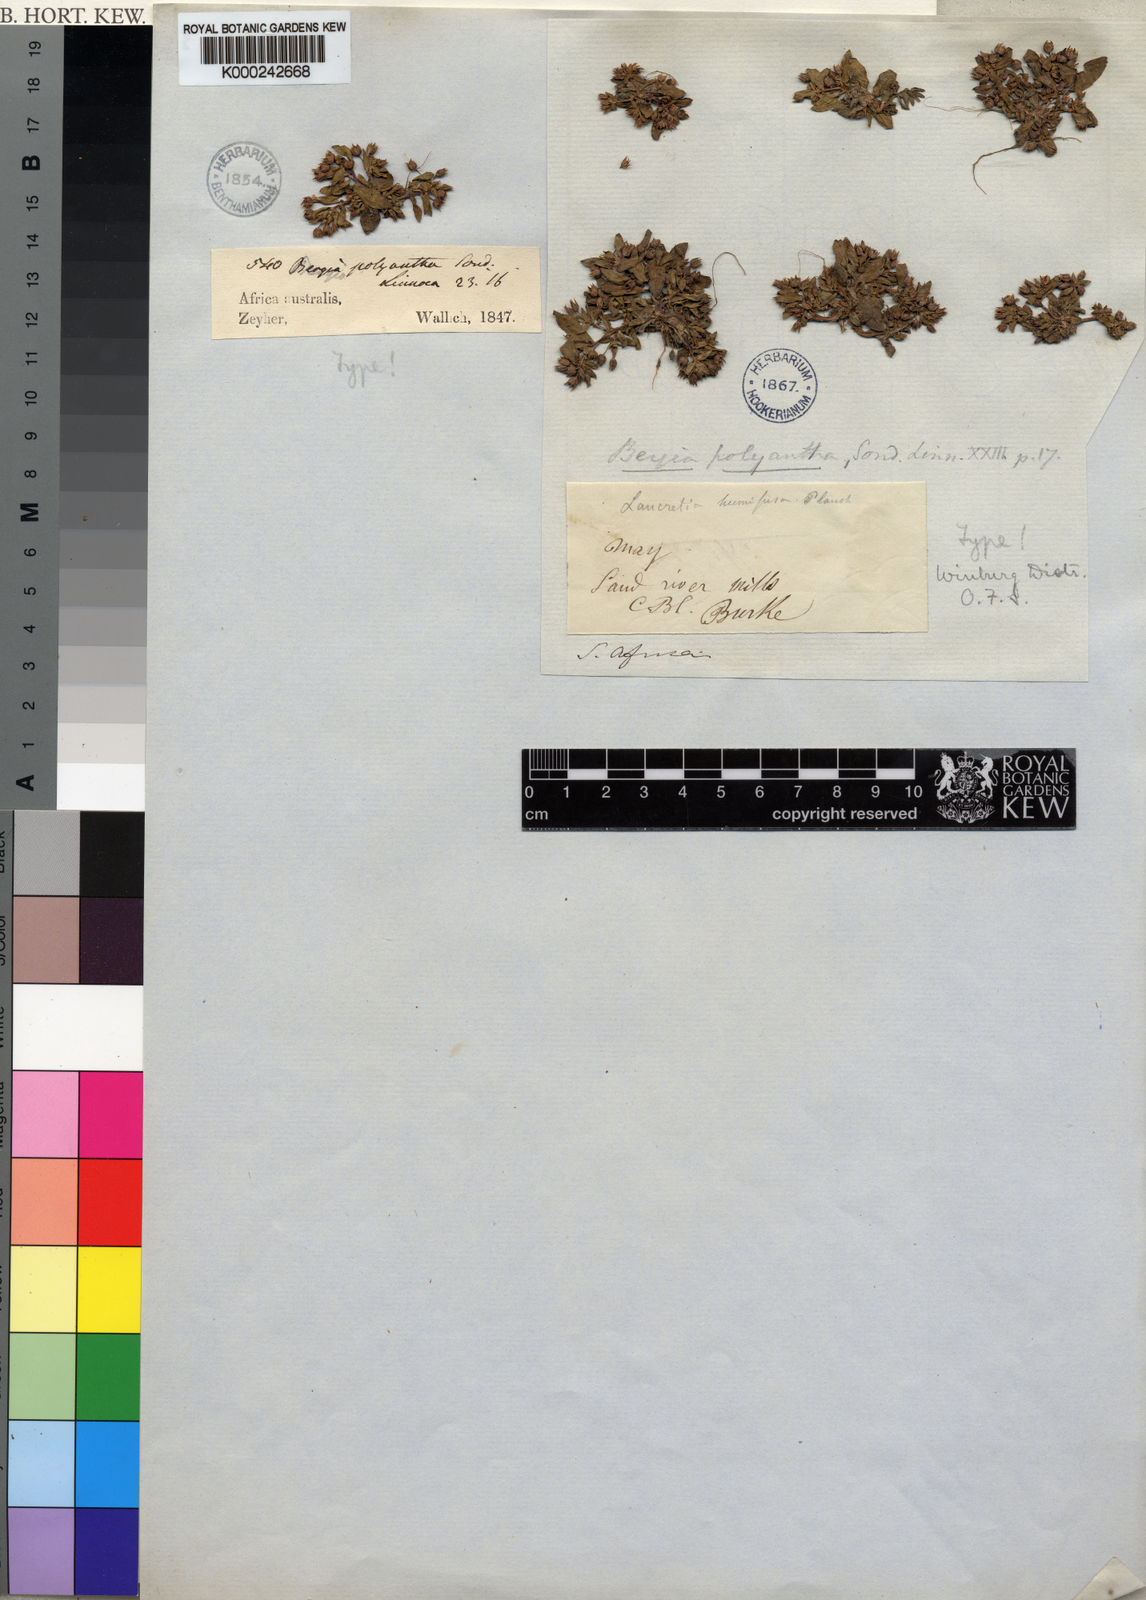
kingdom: Plantae
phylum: Tracheophyta
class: Magnoliopsida
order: Malpighiales
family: Elatinaceae
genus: Bergia
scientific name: Bergia polyantha
